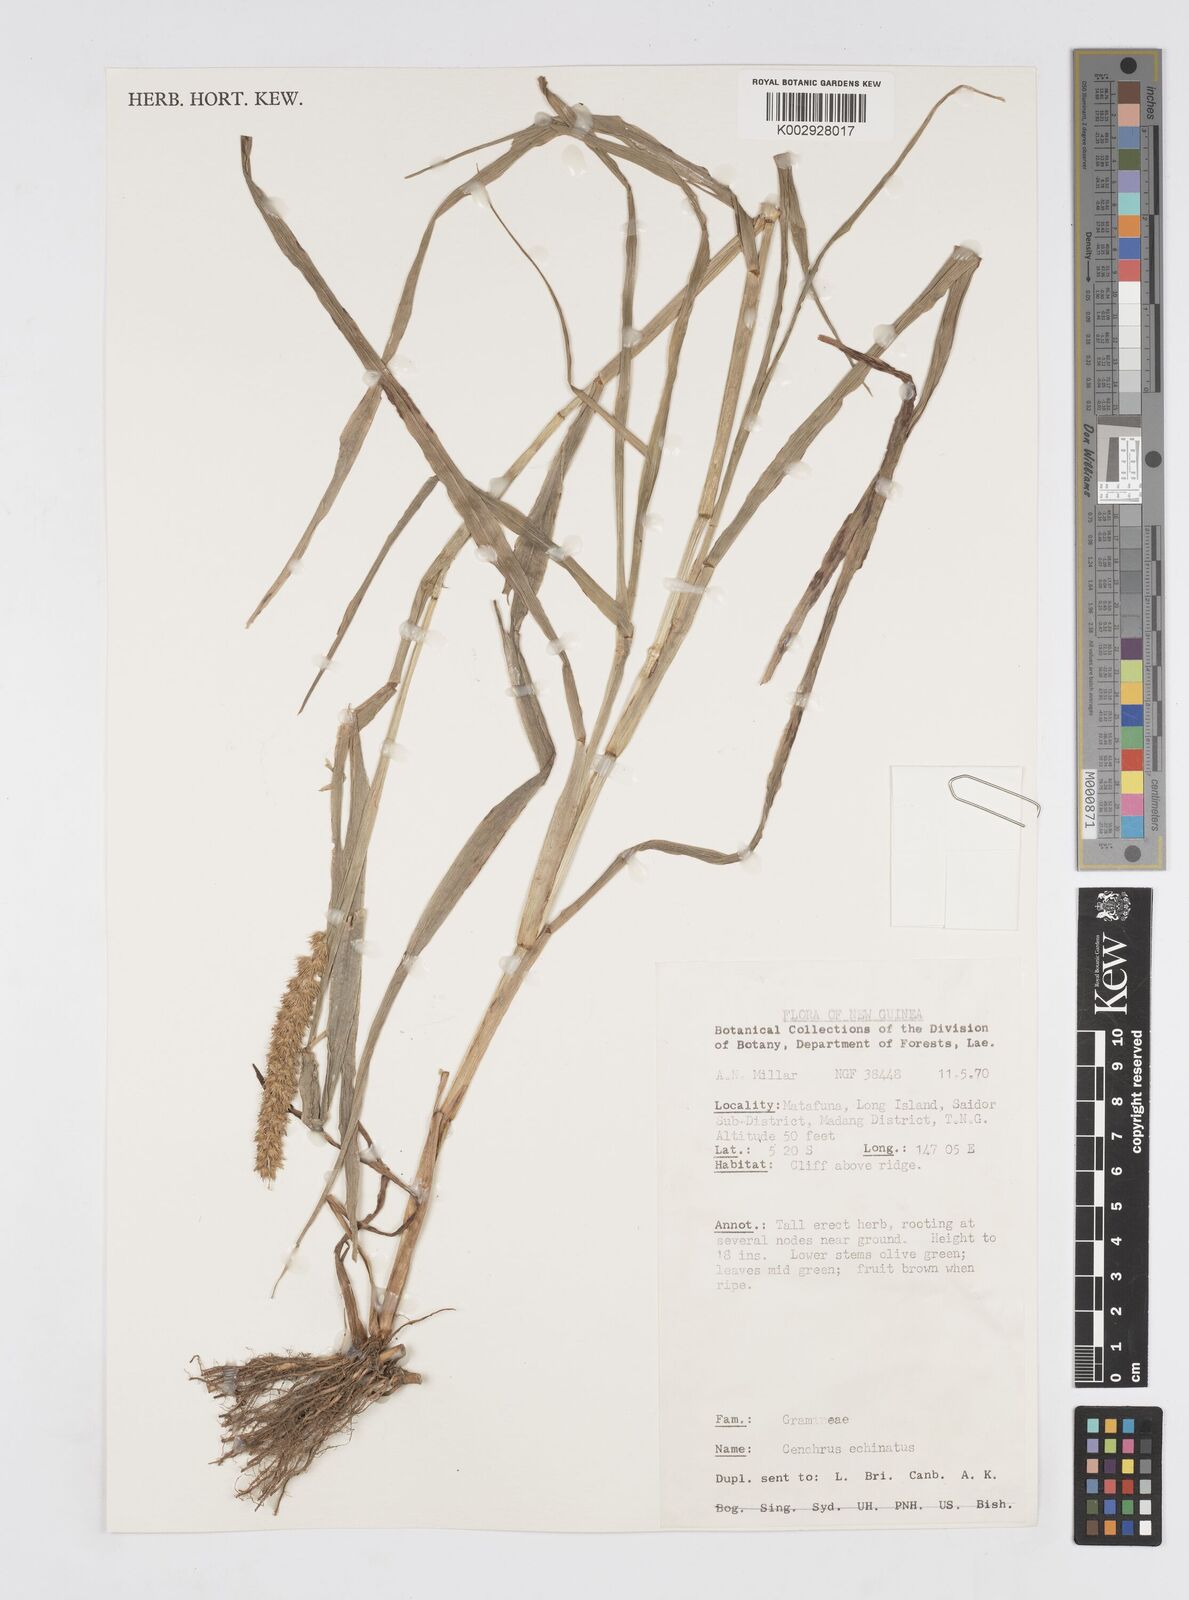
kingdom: Plantae
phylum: Tracheophyta
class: Liliopsida
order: Poales
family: Poaceae
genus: Cenchrus
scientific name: Cenchrus brownii
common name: Slim-bristle sandbur
